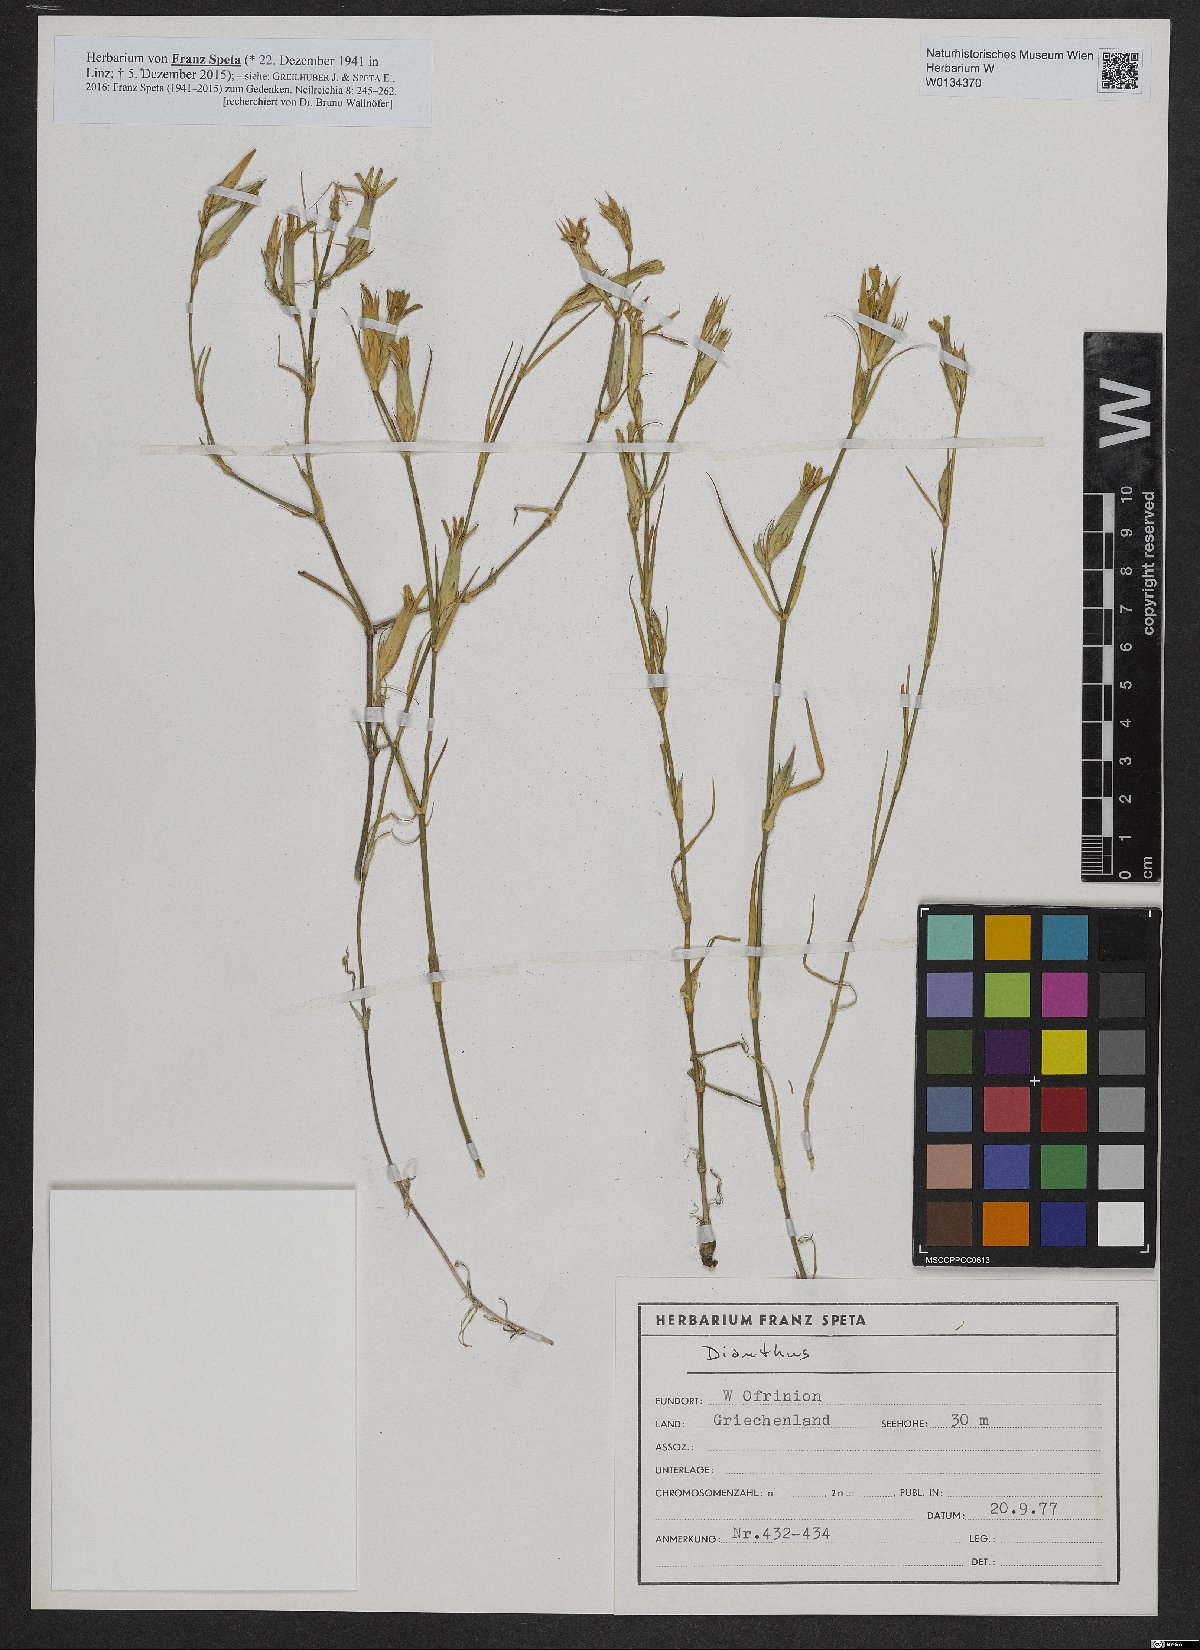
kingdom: Plantae
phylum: Tracheophyta
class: Magnoliopsida
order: Caryophyllales
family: Caryophyllaceae
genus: Dianthus
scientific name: Dianthus
